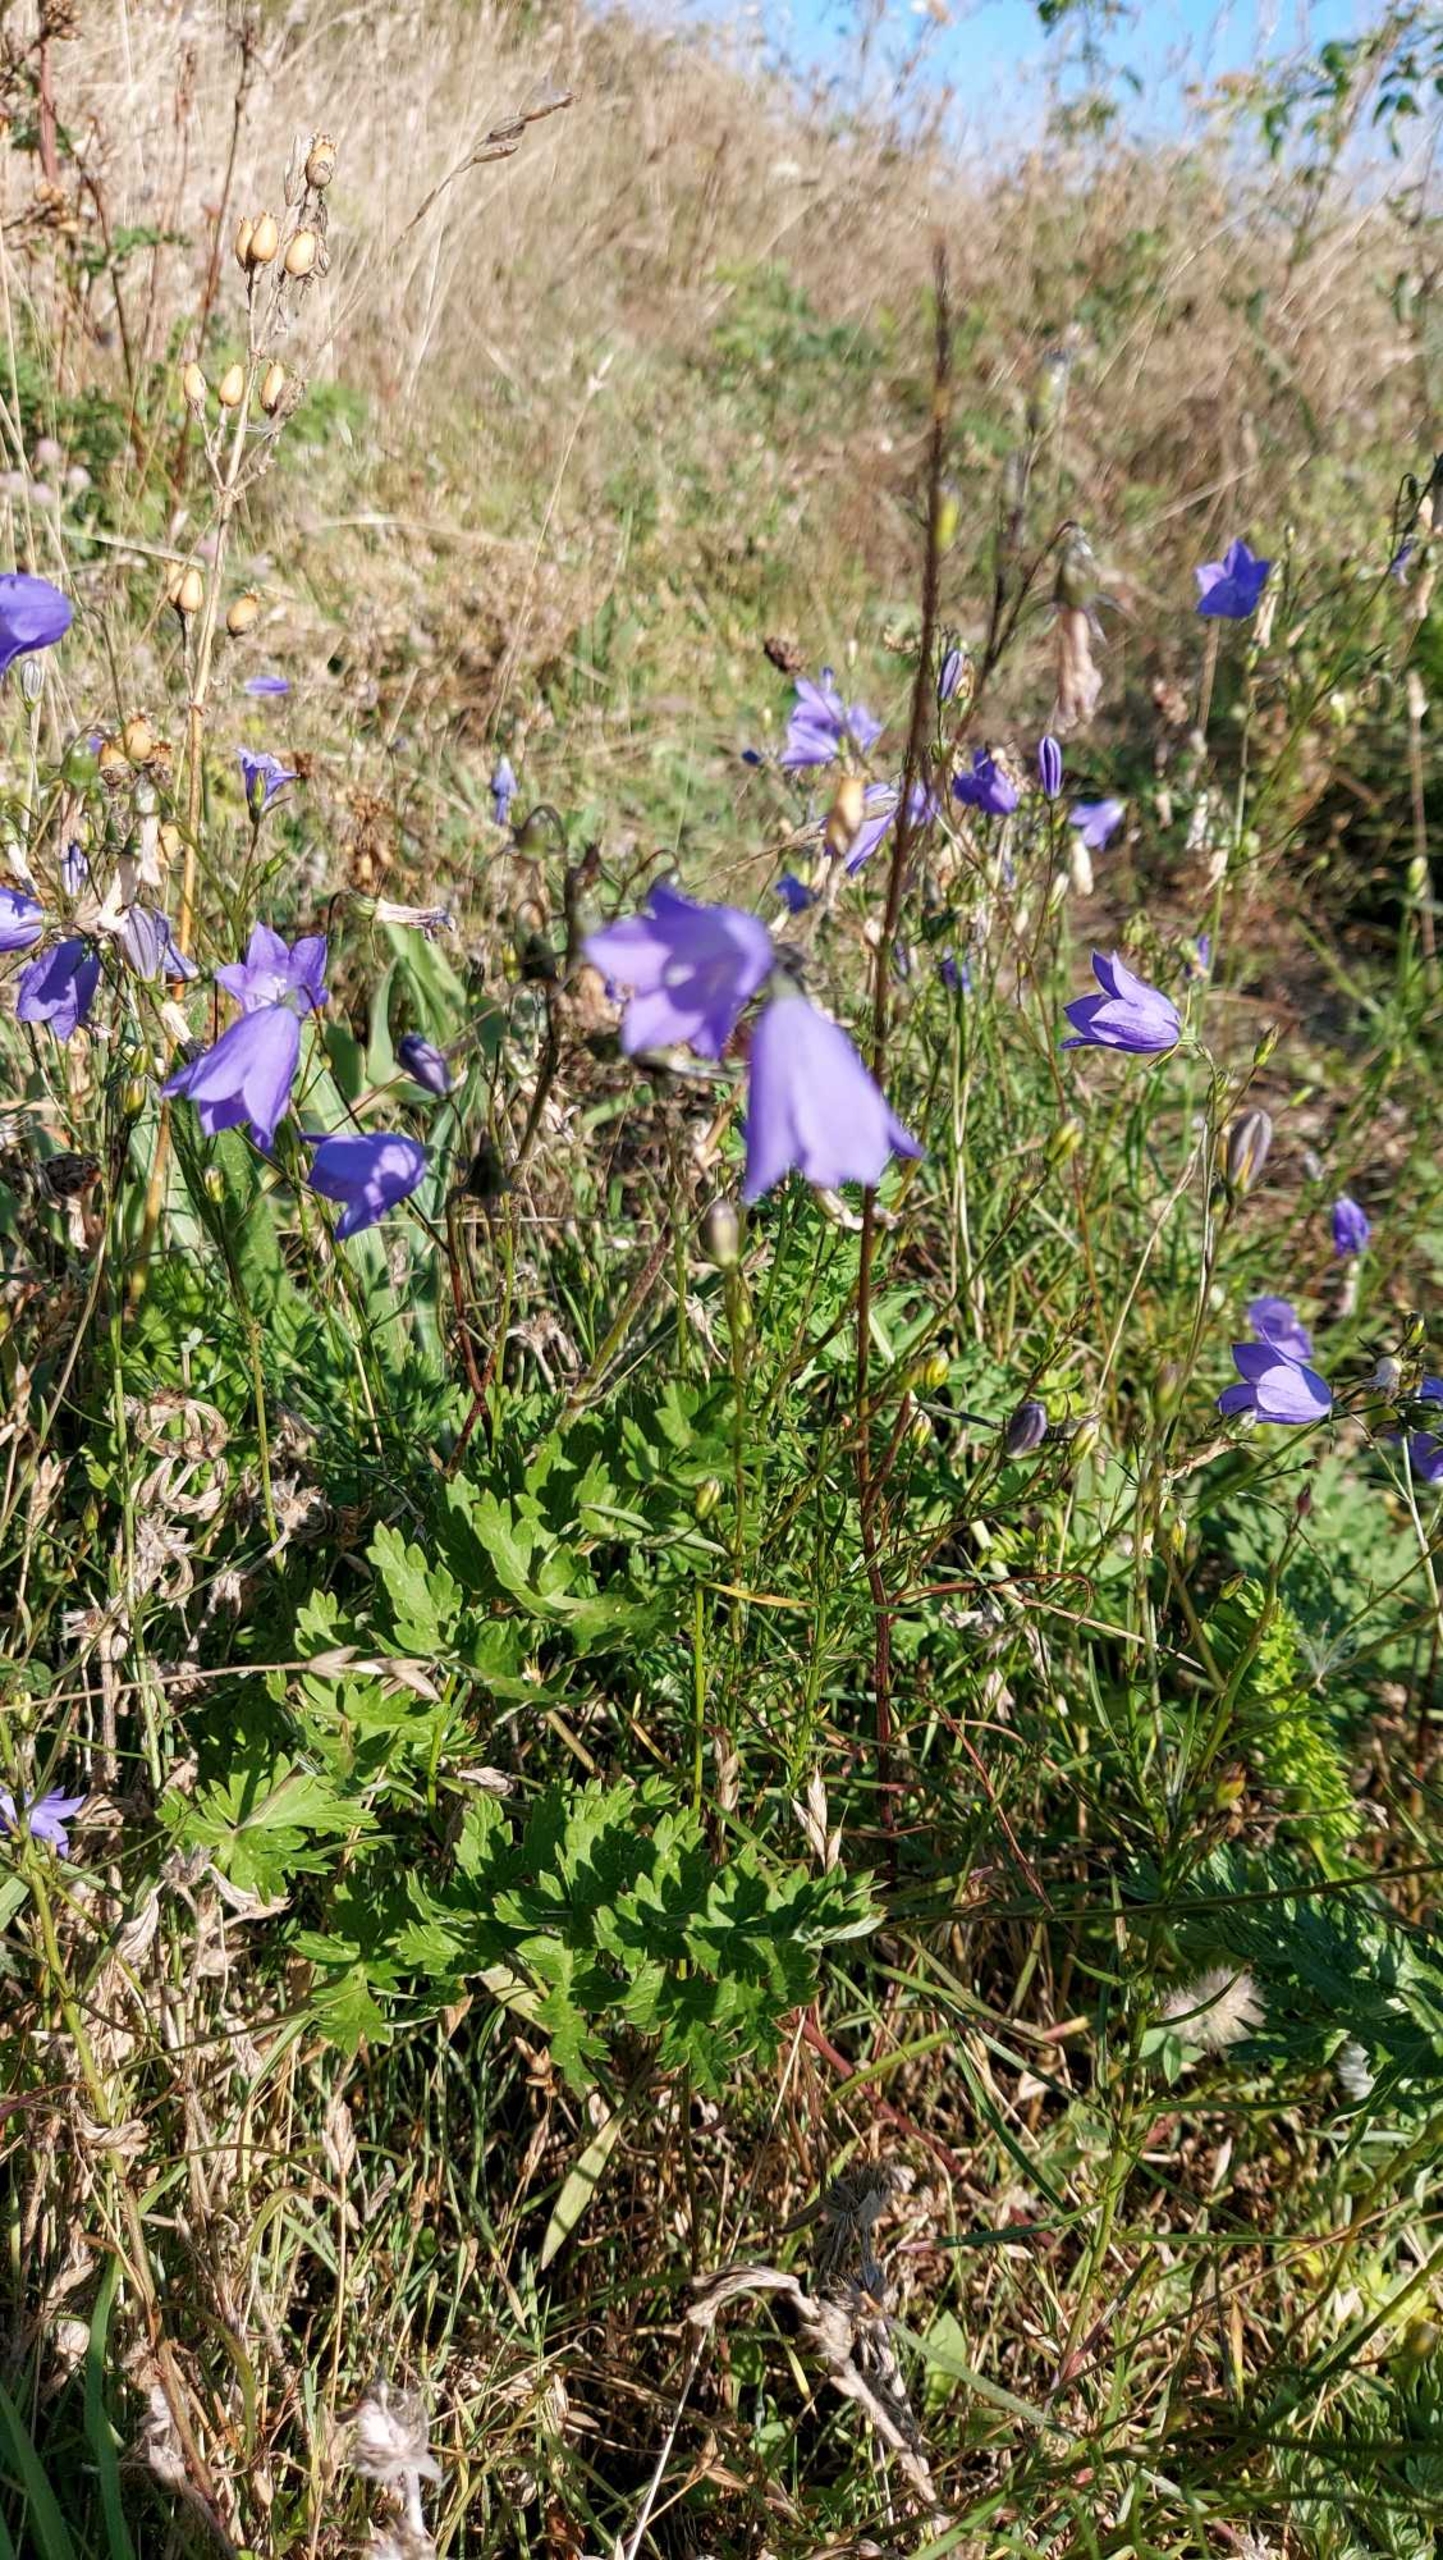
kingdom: Plantae
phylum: Tracheophyta
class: Magnoliopsida
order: Asterales
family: Campanulaceae
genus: Campanula
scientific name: Campanula rotundifolia
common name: Liden klokke
